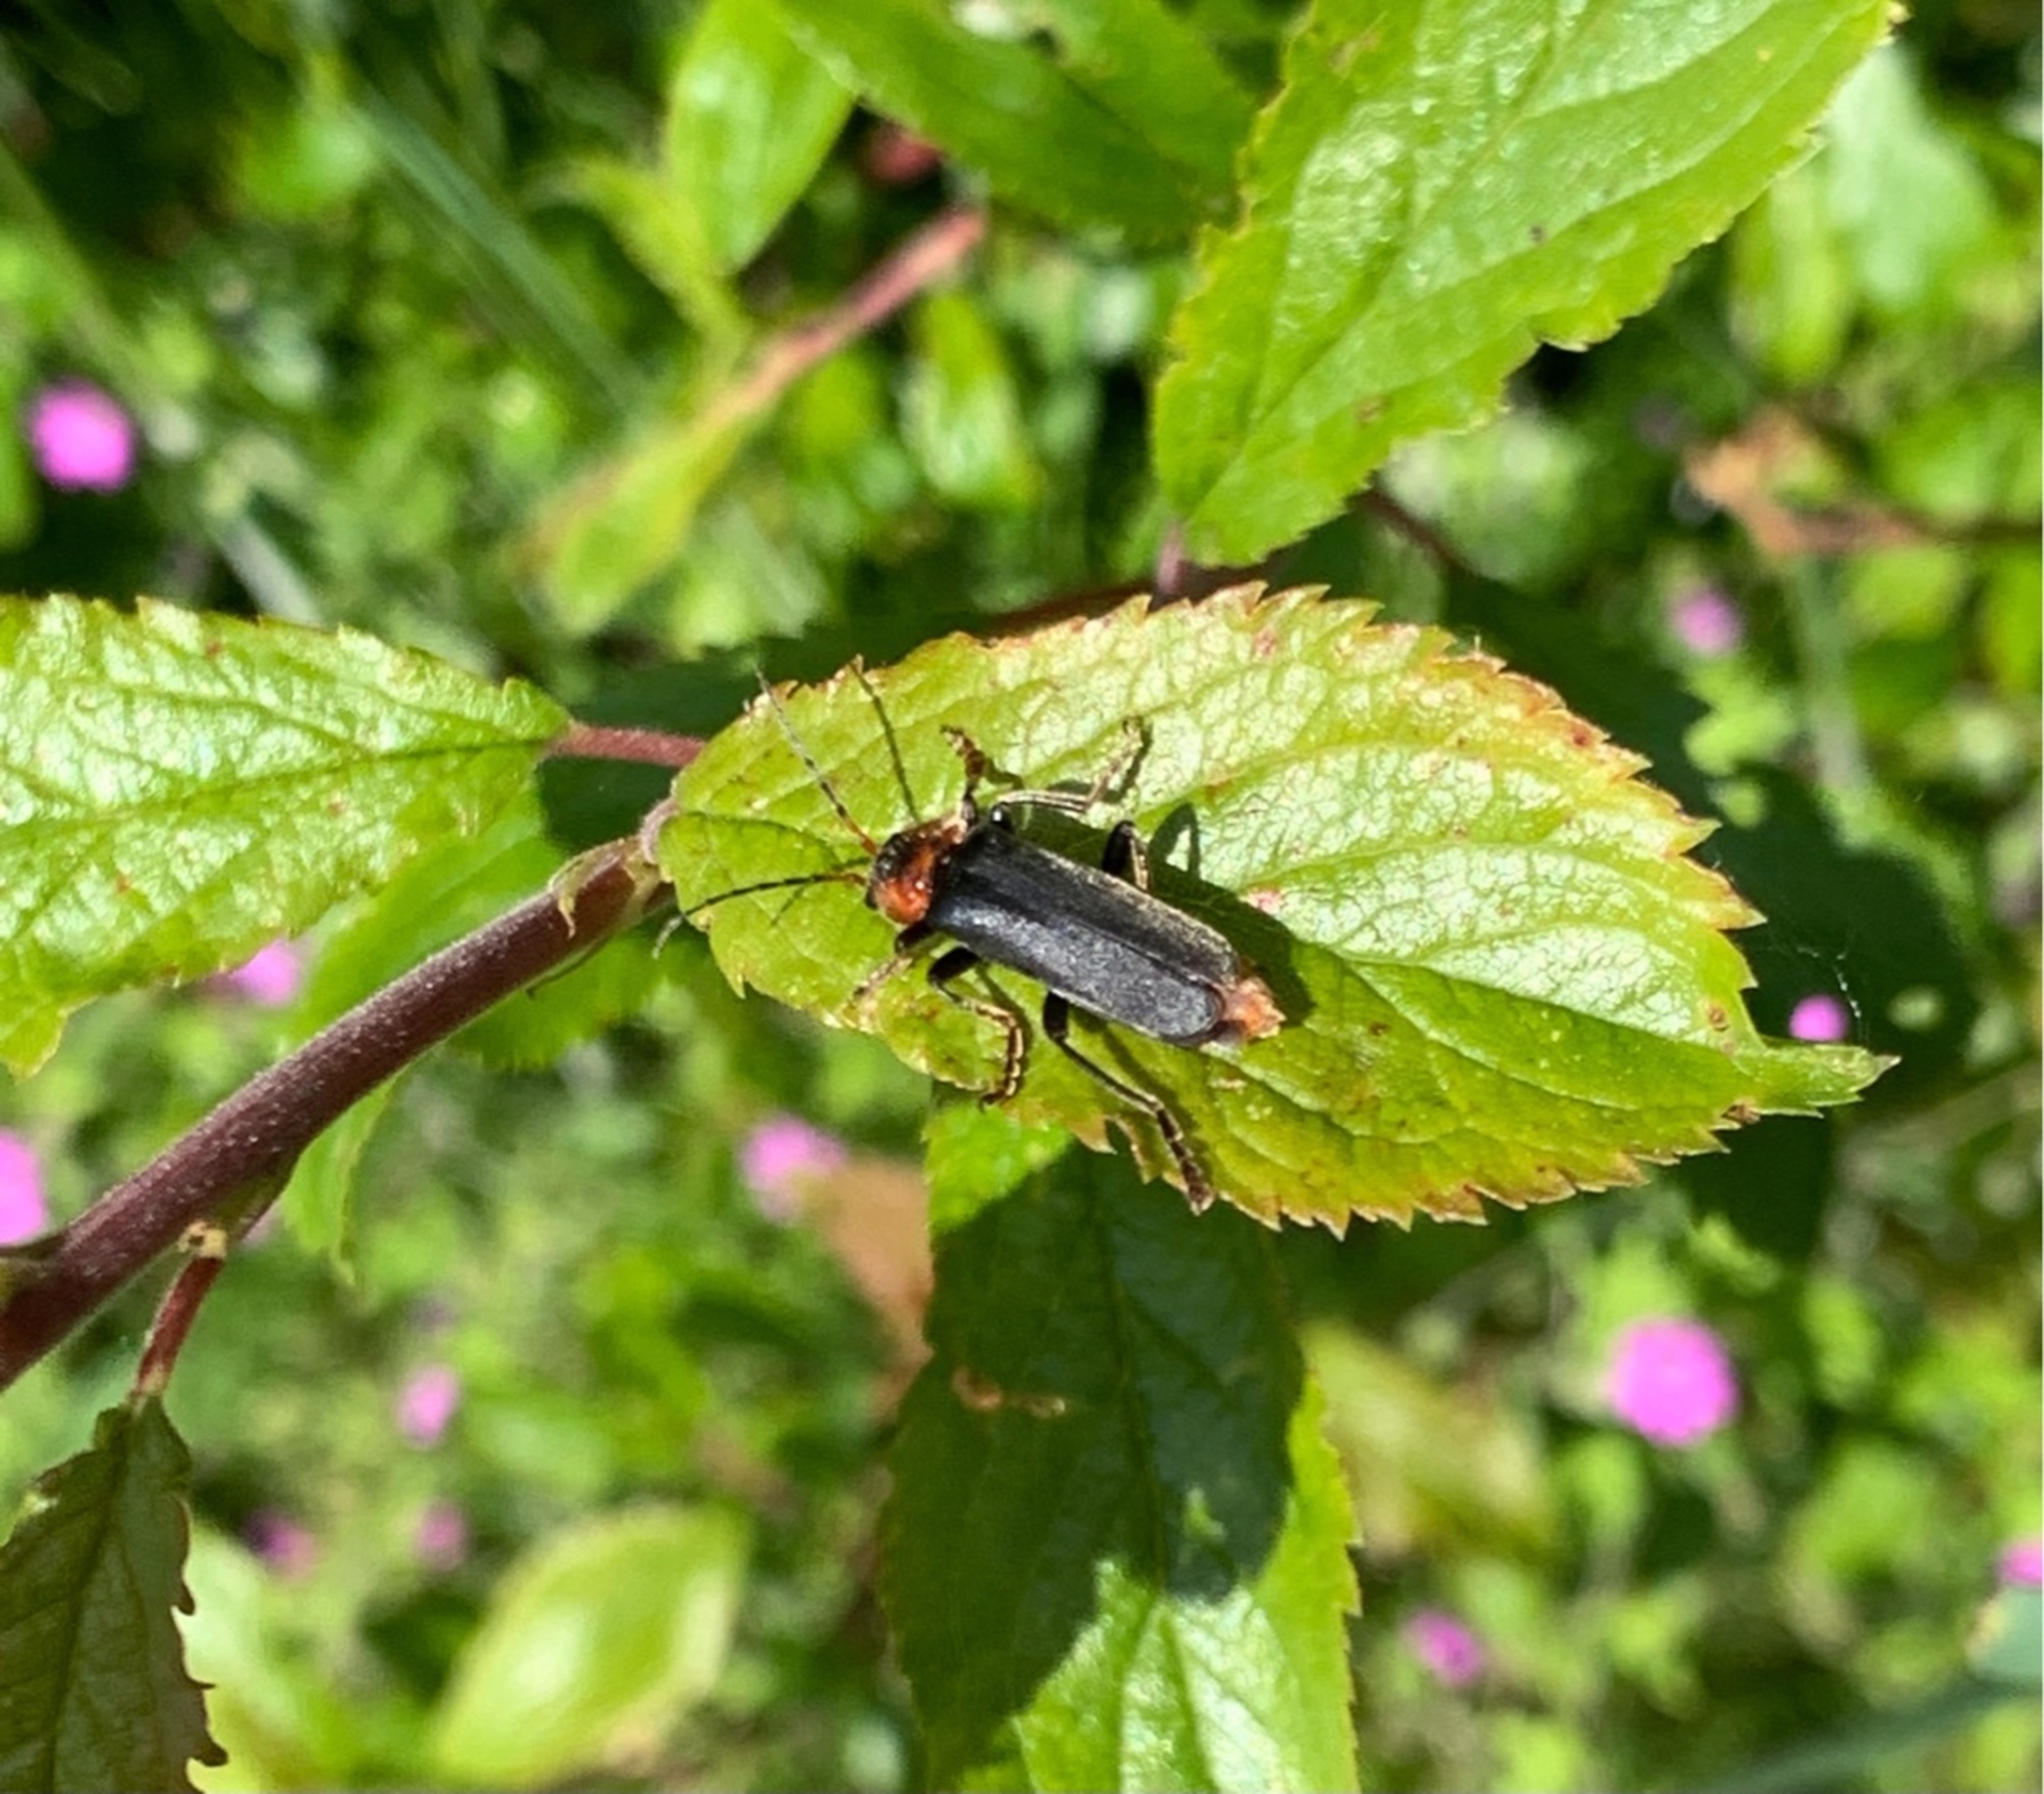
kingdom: Animalia
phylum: Arthropoda
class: Insecta
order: Coleoptera
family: Cantharidae
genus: Cantharis
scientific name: Cantharis fusca
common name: Stor blødvinge
